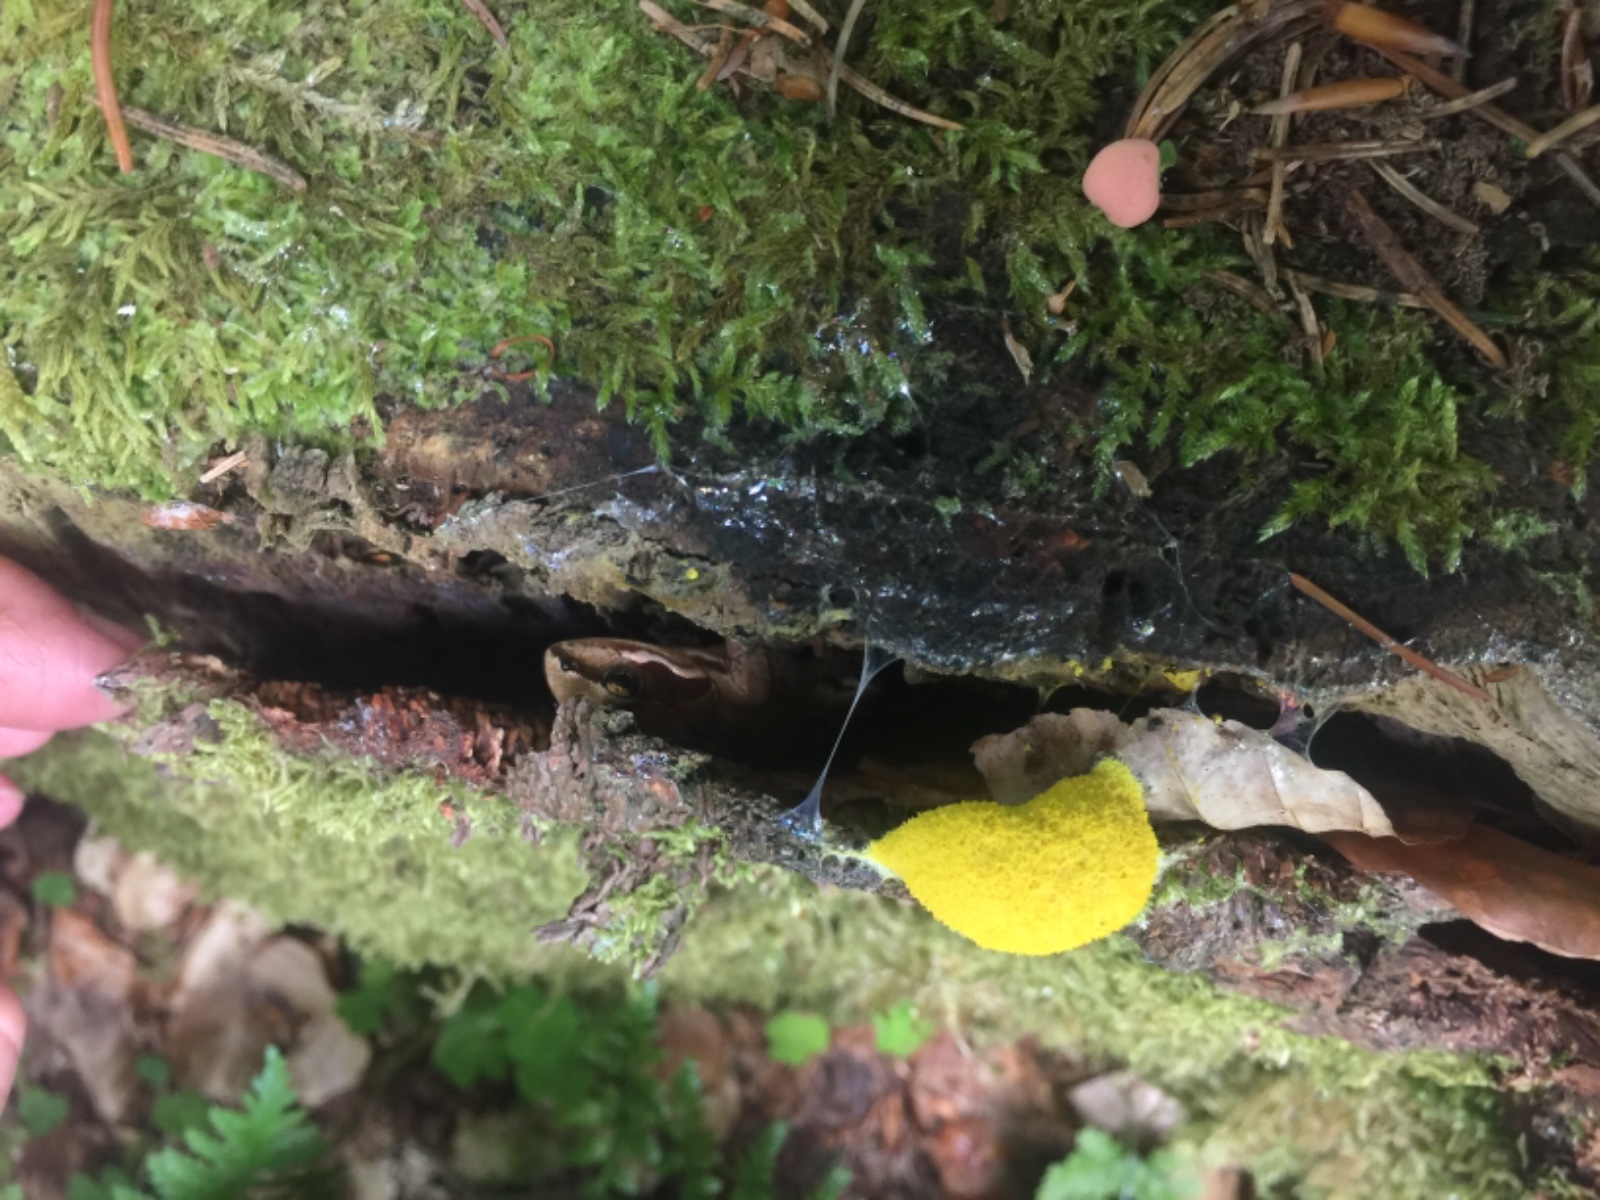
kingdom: Protozoa
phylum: Mycetozoa
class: Myxomycetes
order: Physarales
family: Physaraceae
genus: Fuligo
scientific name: Fuligo septica
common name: gul troldsmør
